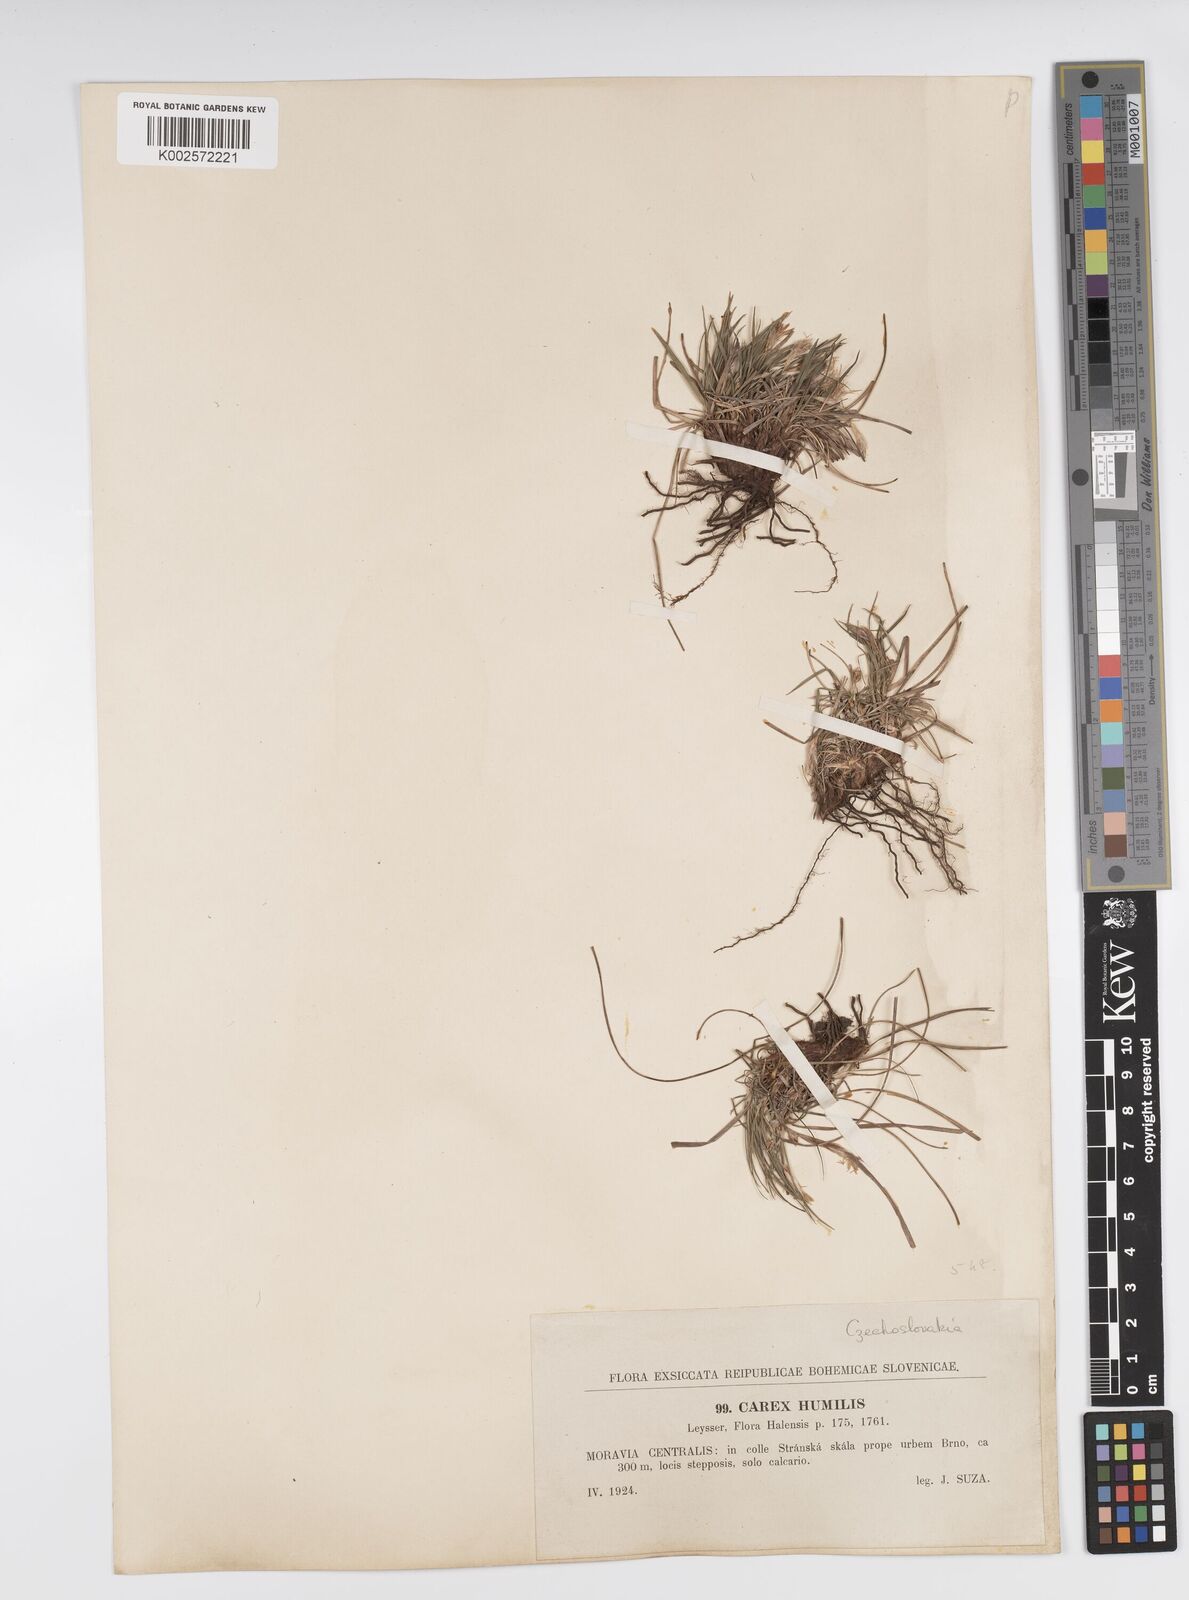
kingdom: Plantae
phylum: Tracheophyta
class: Liliopsida
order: Poales
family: Cyperaceae
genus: Carex
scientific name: Carex humilis
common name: Dwarf sedge
